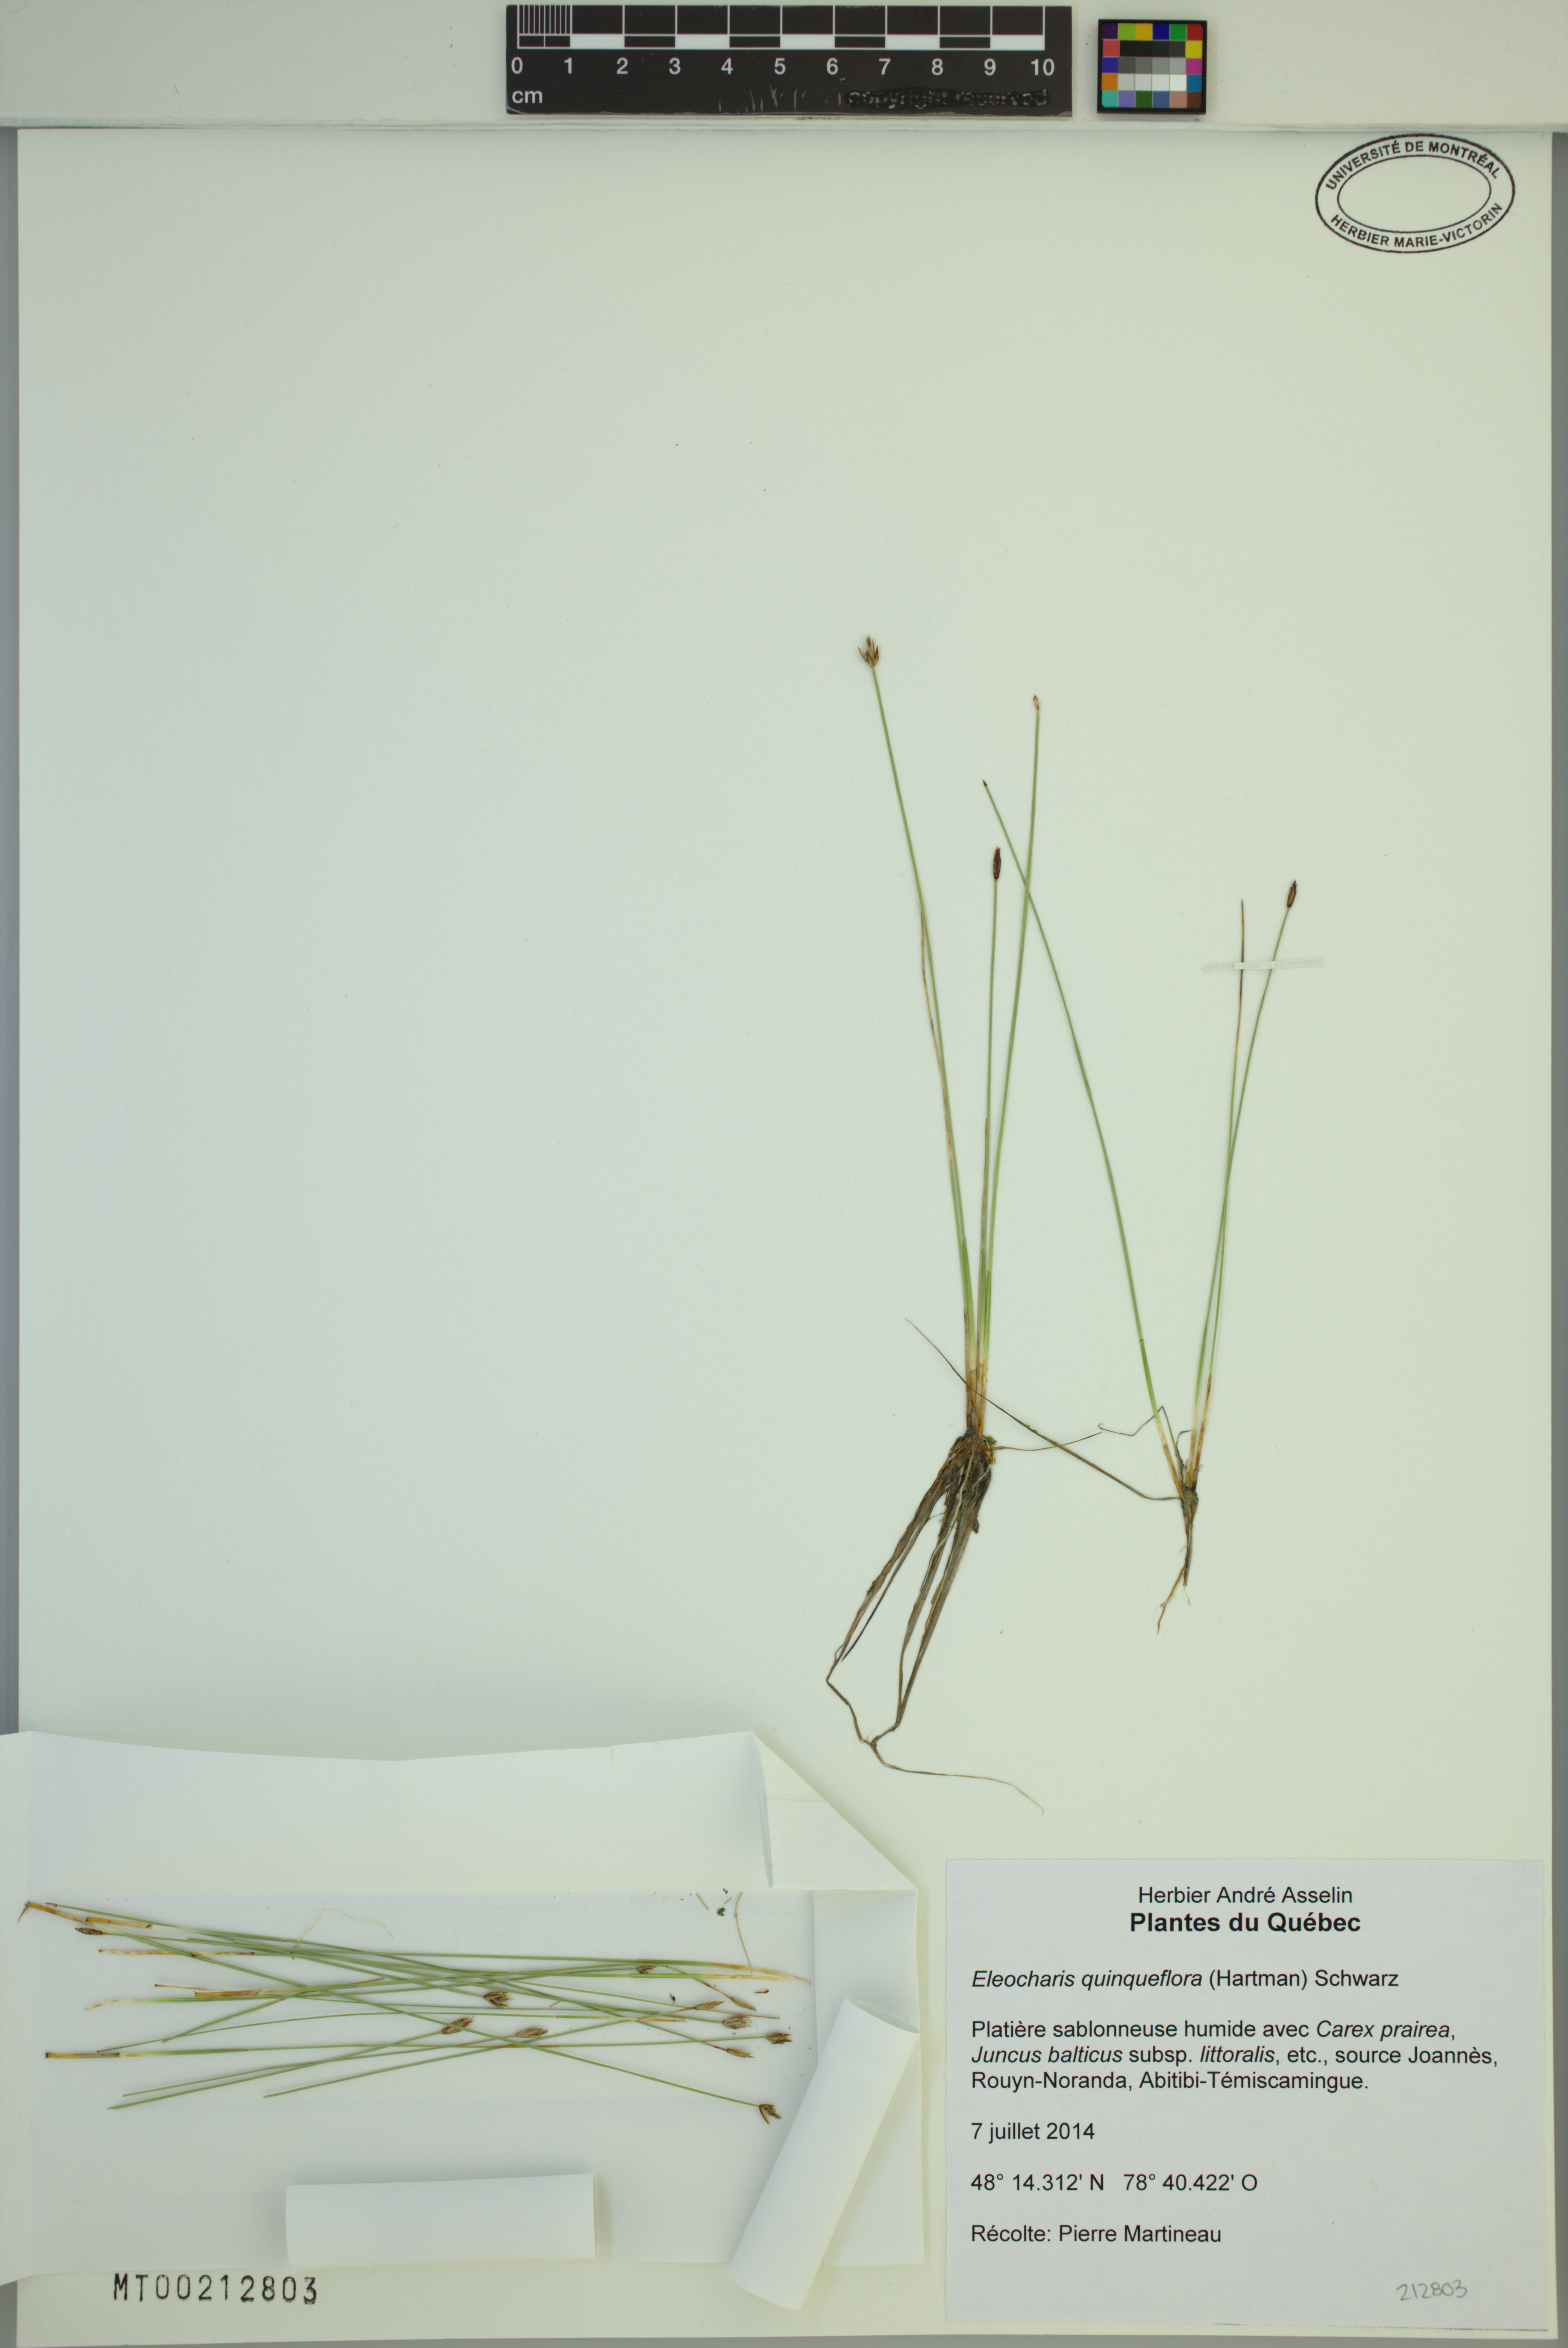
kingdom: Plantae
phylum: Tracheophyta
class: Liliopsida
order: Poales
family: Cyperaceae
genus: Eleocharis
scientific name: Eleocharis quinqueflora
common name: Few-flowered spike-rush
